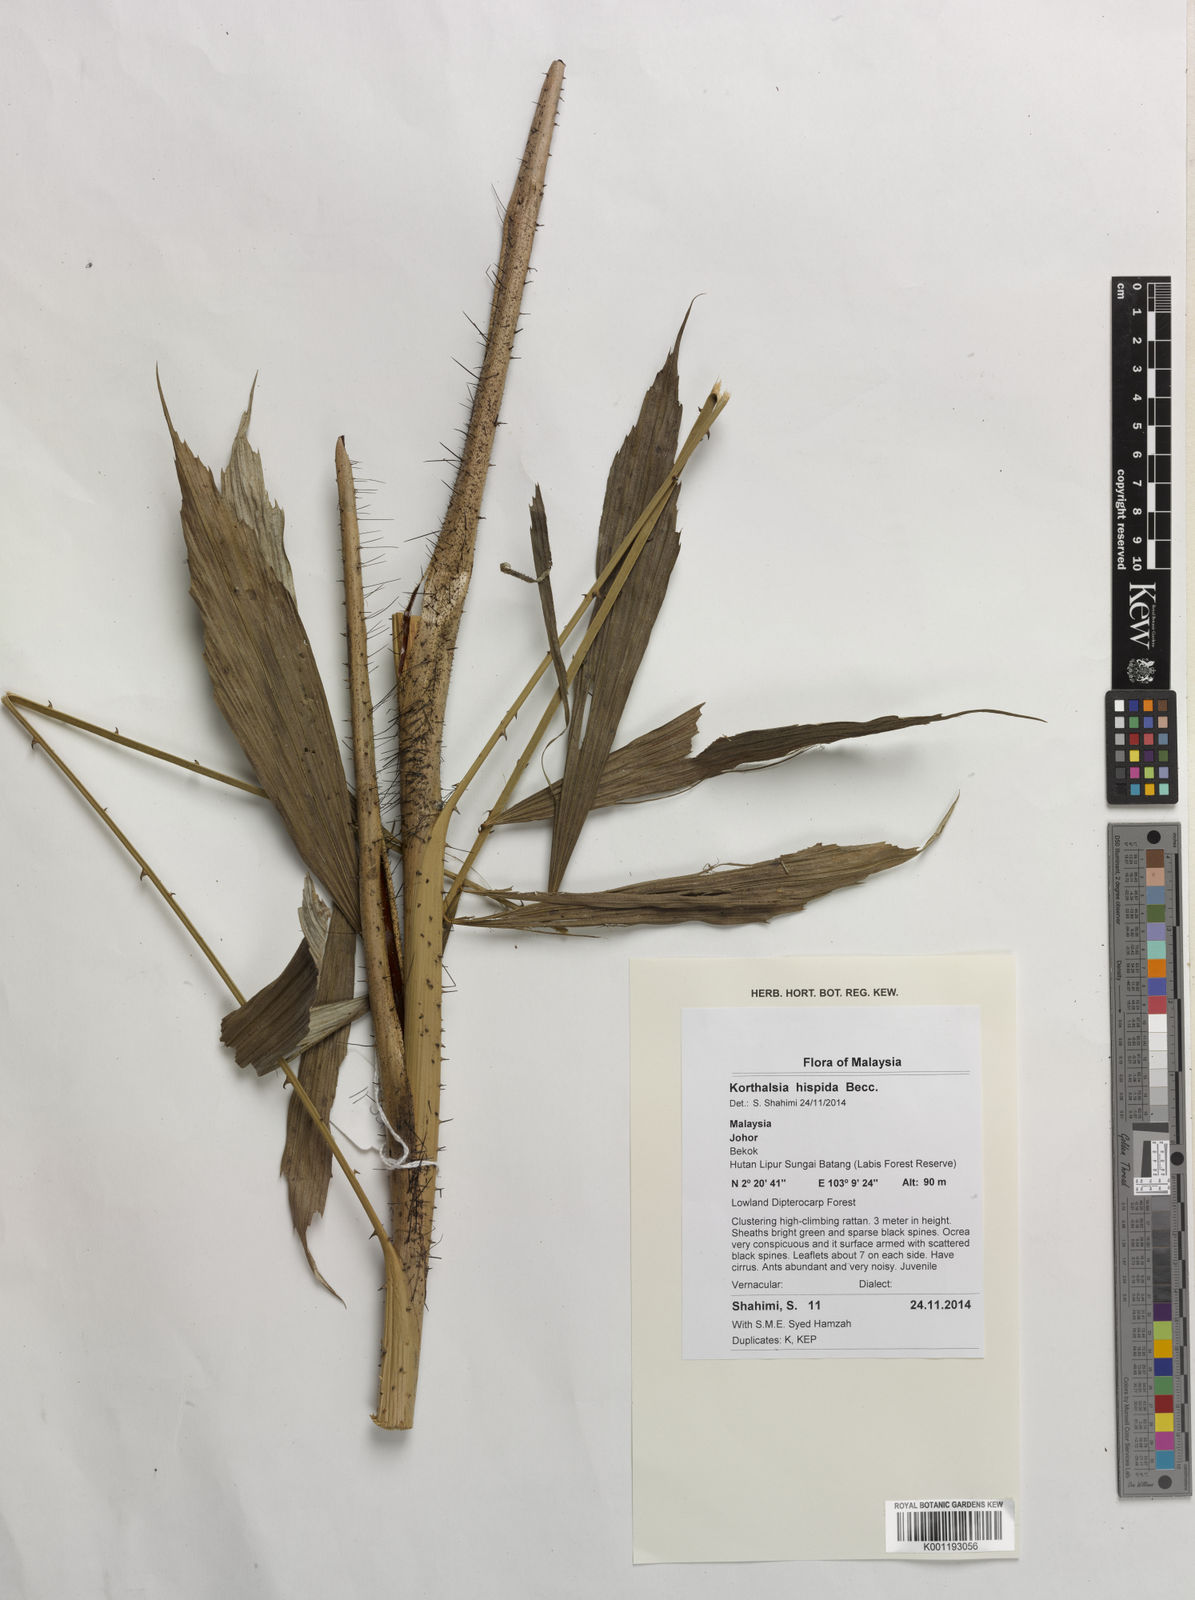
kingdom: Plantae
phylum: Tracheophyta
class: Liliopsida
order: Arecales
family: Arecaceae
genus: Korthalsia
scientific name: Korthalsia hispida
